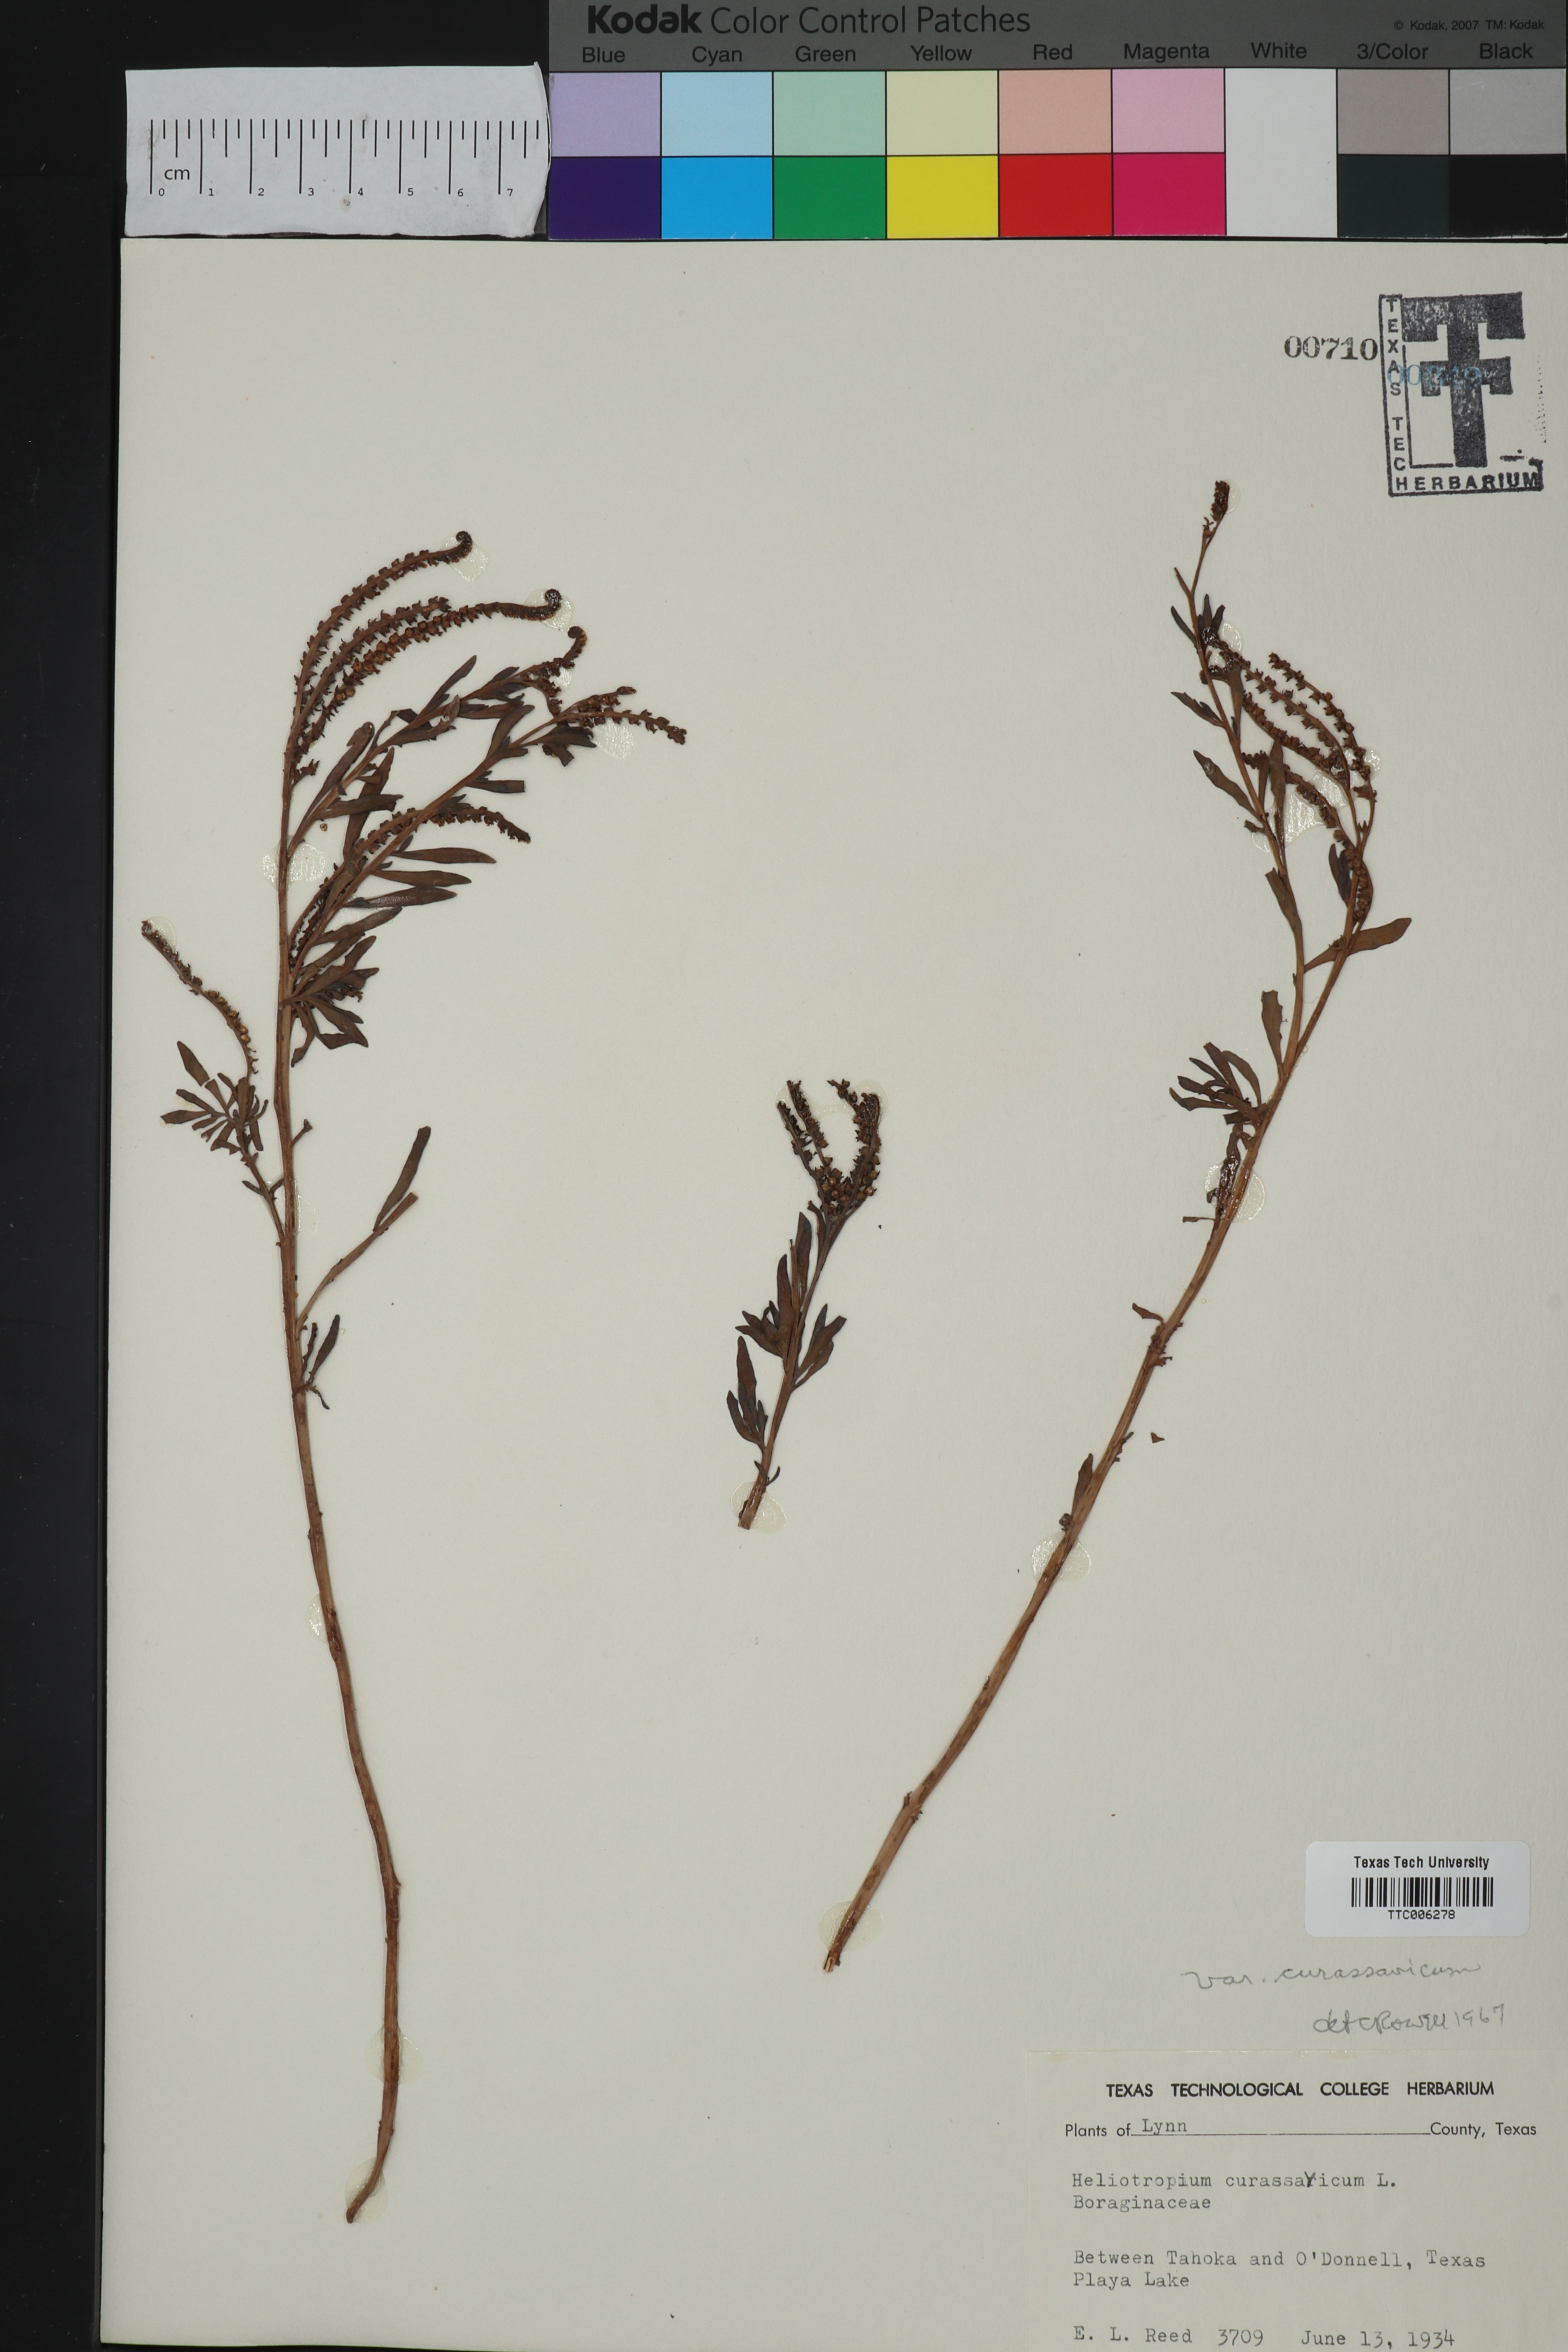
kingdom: Plantae
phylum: Tracheophyta
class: Magnoliopsida
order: Boraginales
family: Heliotropiaceae
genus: Heliotropium
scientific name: Heliotropium curassavicum
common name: Seaside heliotrope
